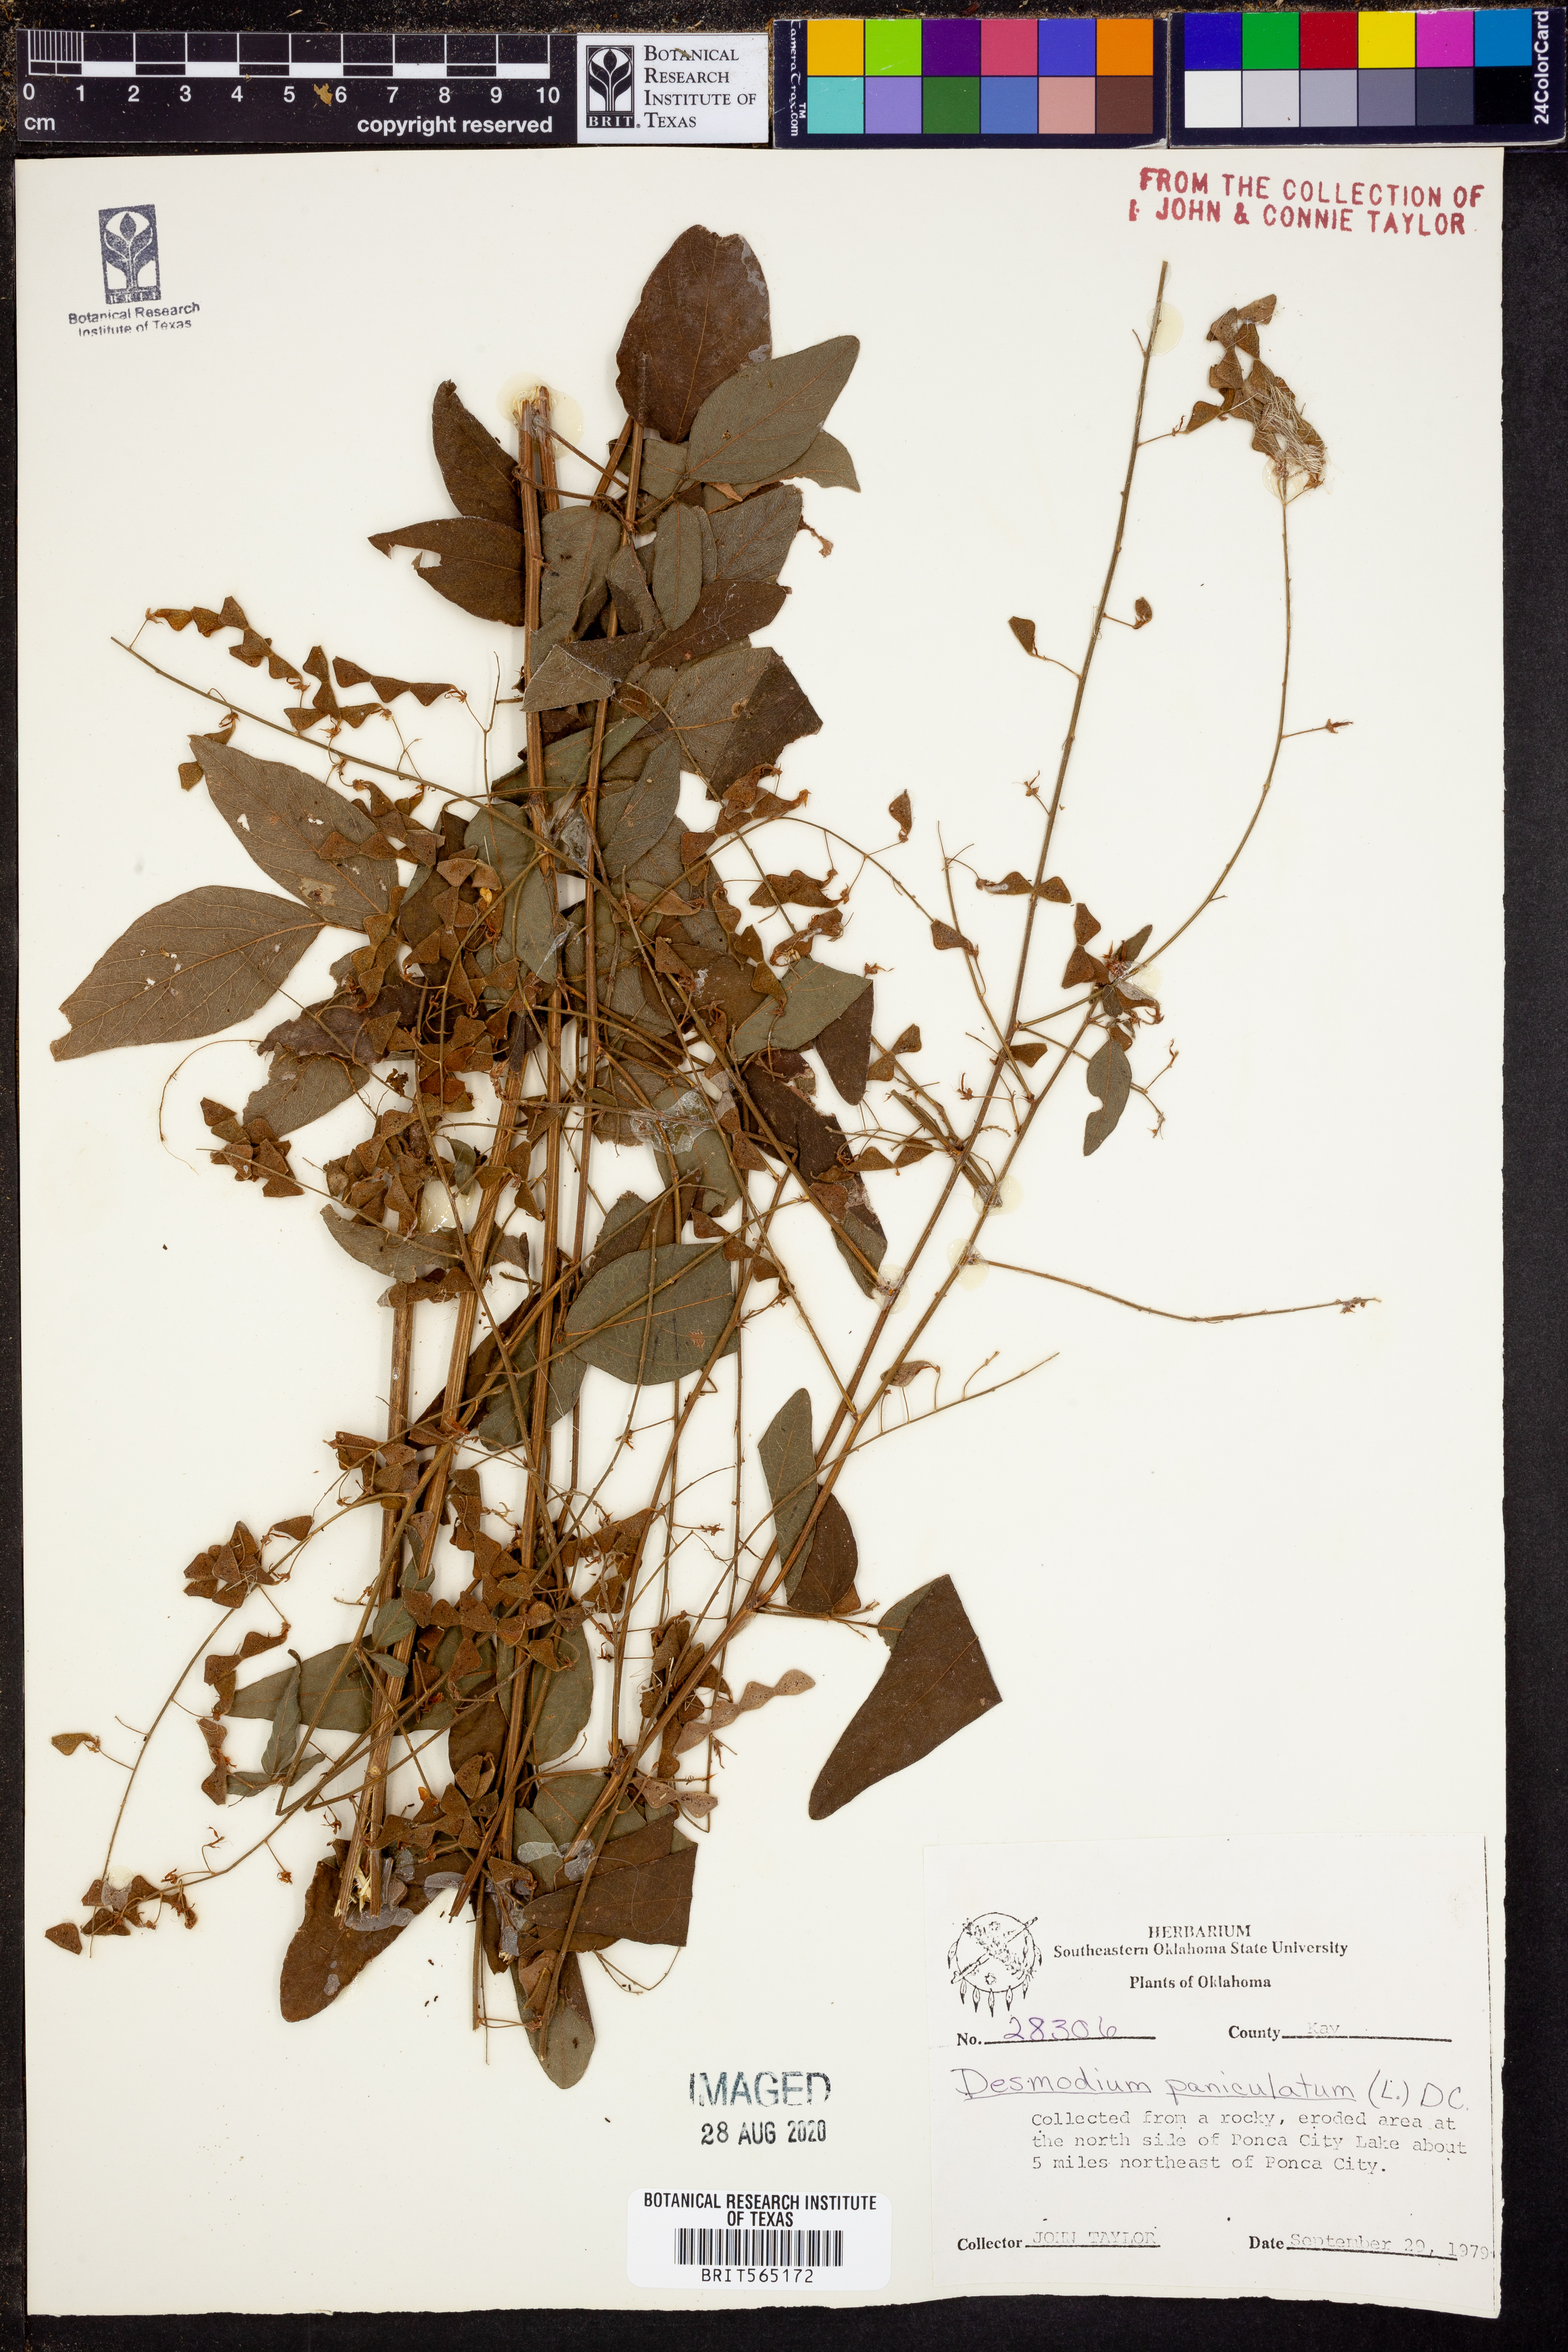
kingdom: Plantae
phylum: Tracheophyta
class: Magnoliopsida
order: Fabales
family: Fabaceae
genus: Desmodium
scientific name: Desmodium paniculatum
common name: Panicled tick-clover
